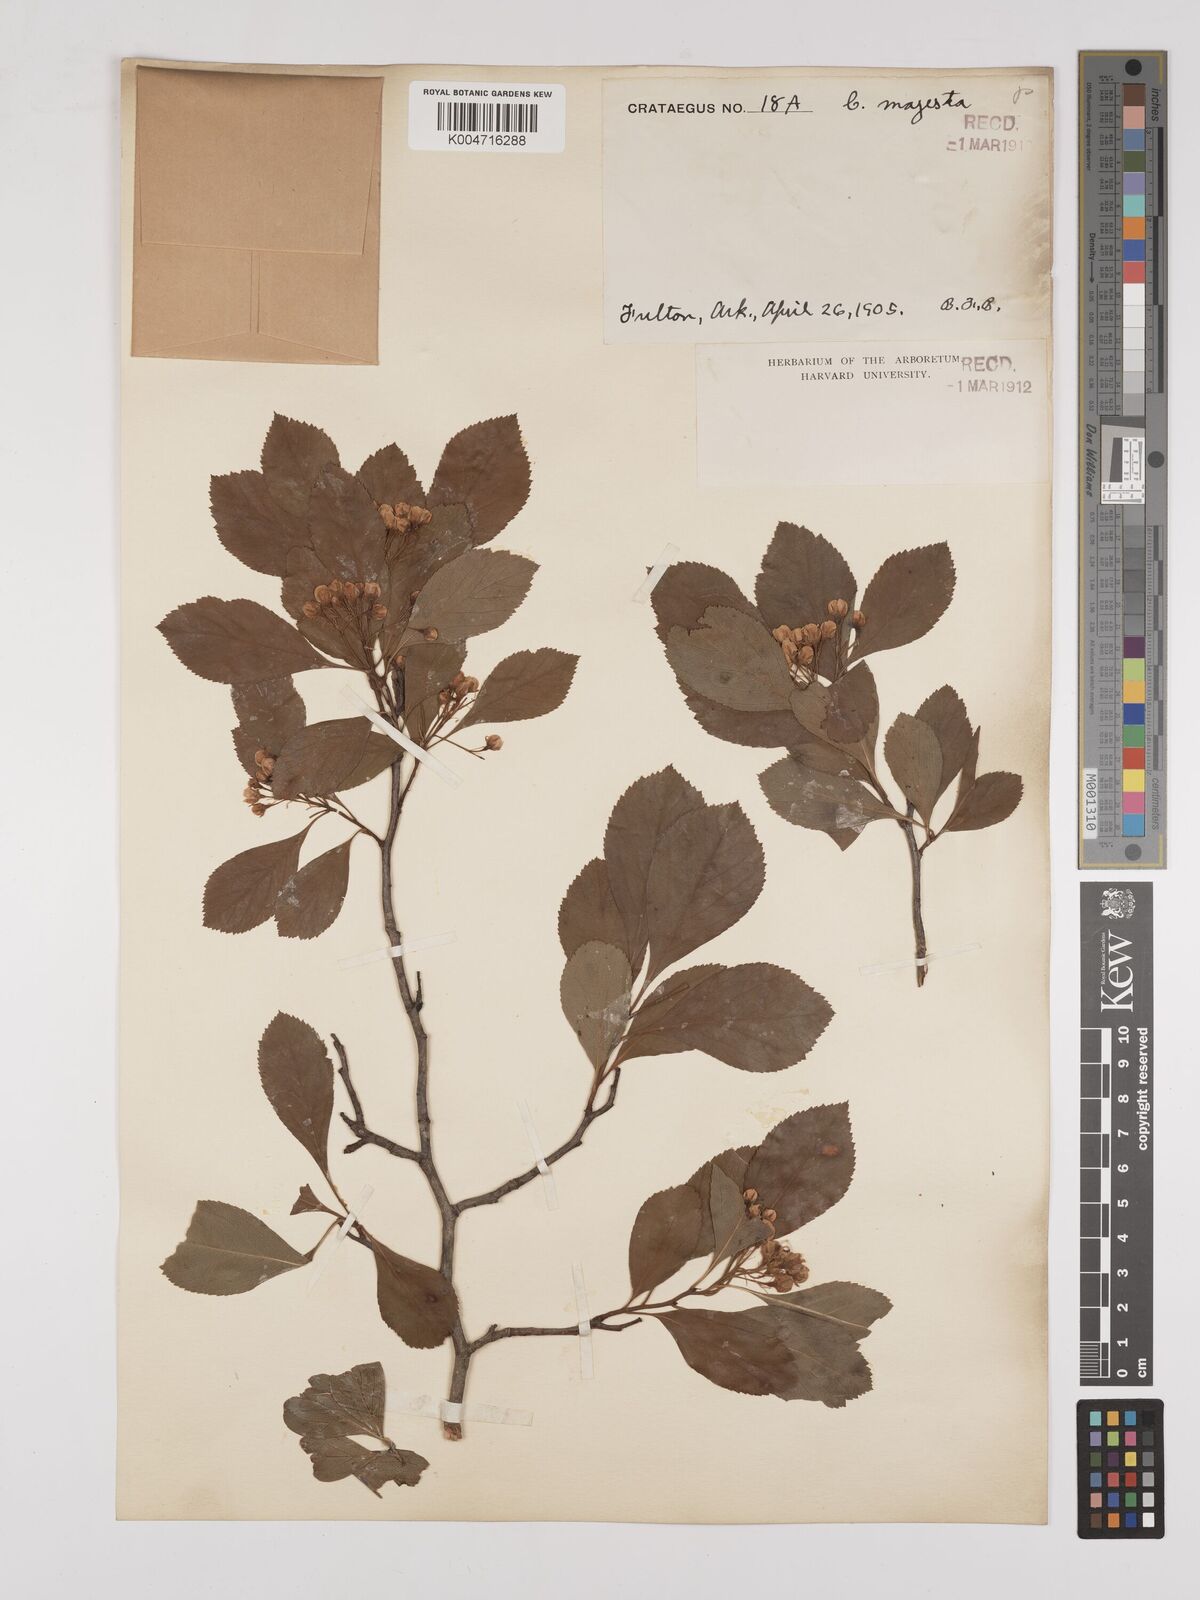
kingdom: Plantae
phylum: Tracheophyta
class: Magnoliopsida
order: Rosales
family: Rosaceae
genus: Crataegus
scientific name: Crataegus
